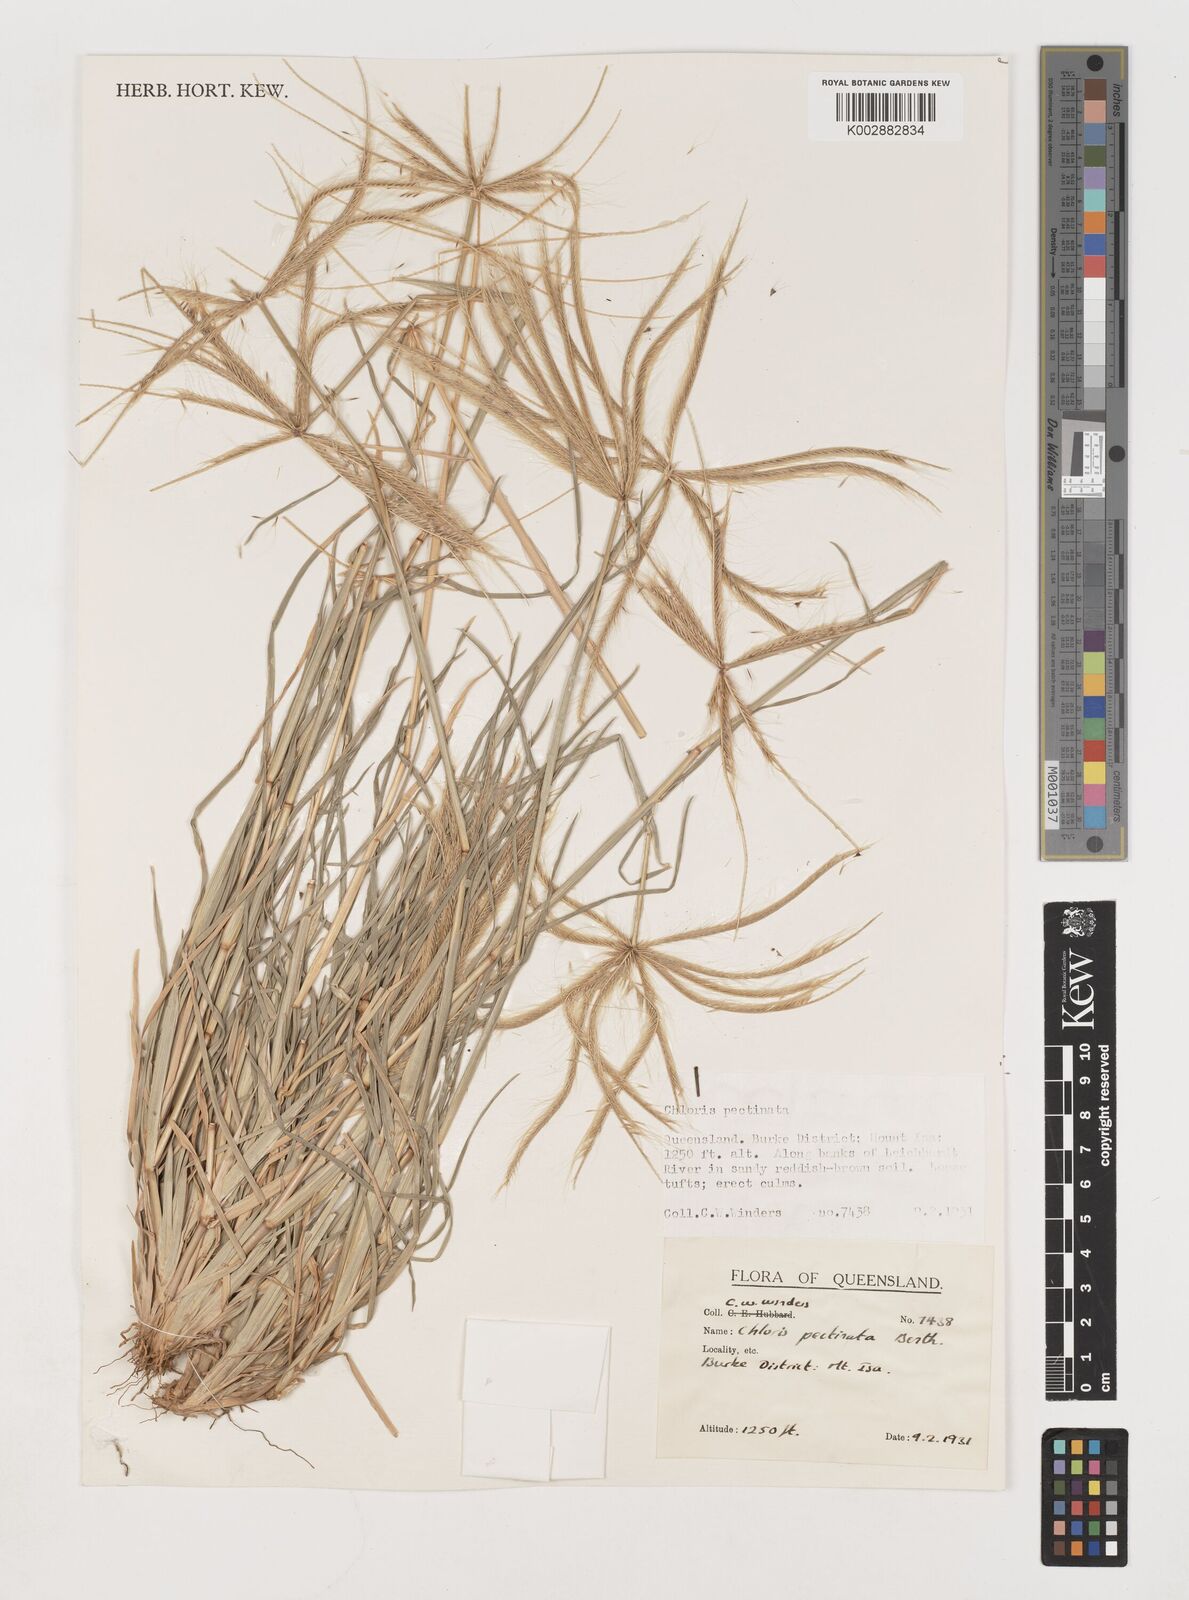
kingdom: Plantae
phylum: Tracheophyta
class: Liliopsida
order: Poales
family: Poaceae
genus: Chloris
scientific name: Chloris pectinata
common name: Comb windmill grass
